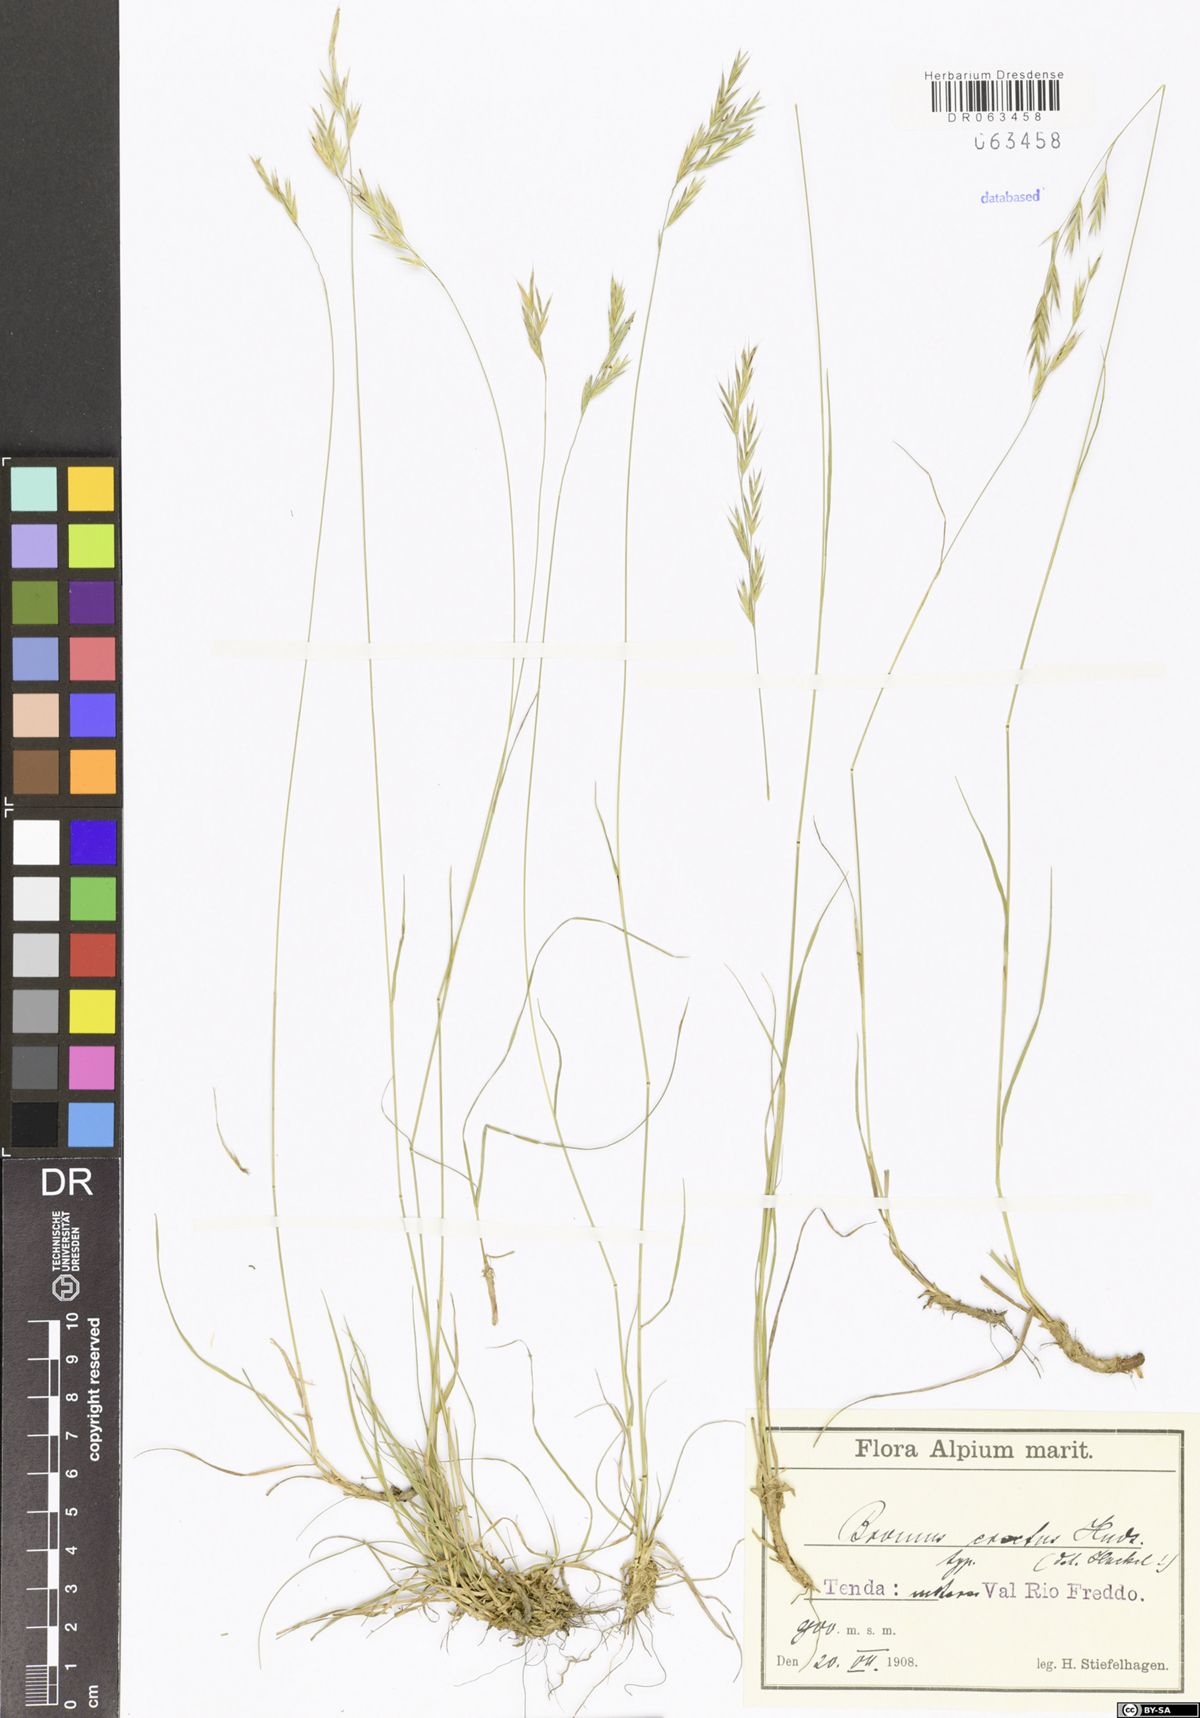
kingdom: Plantae
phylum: Tracheophyta
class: Liliopsida
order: Poales
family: Poaceae
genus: Bromus
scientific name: Bromus erectus
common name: Erect brome
